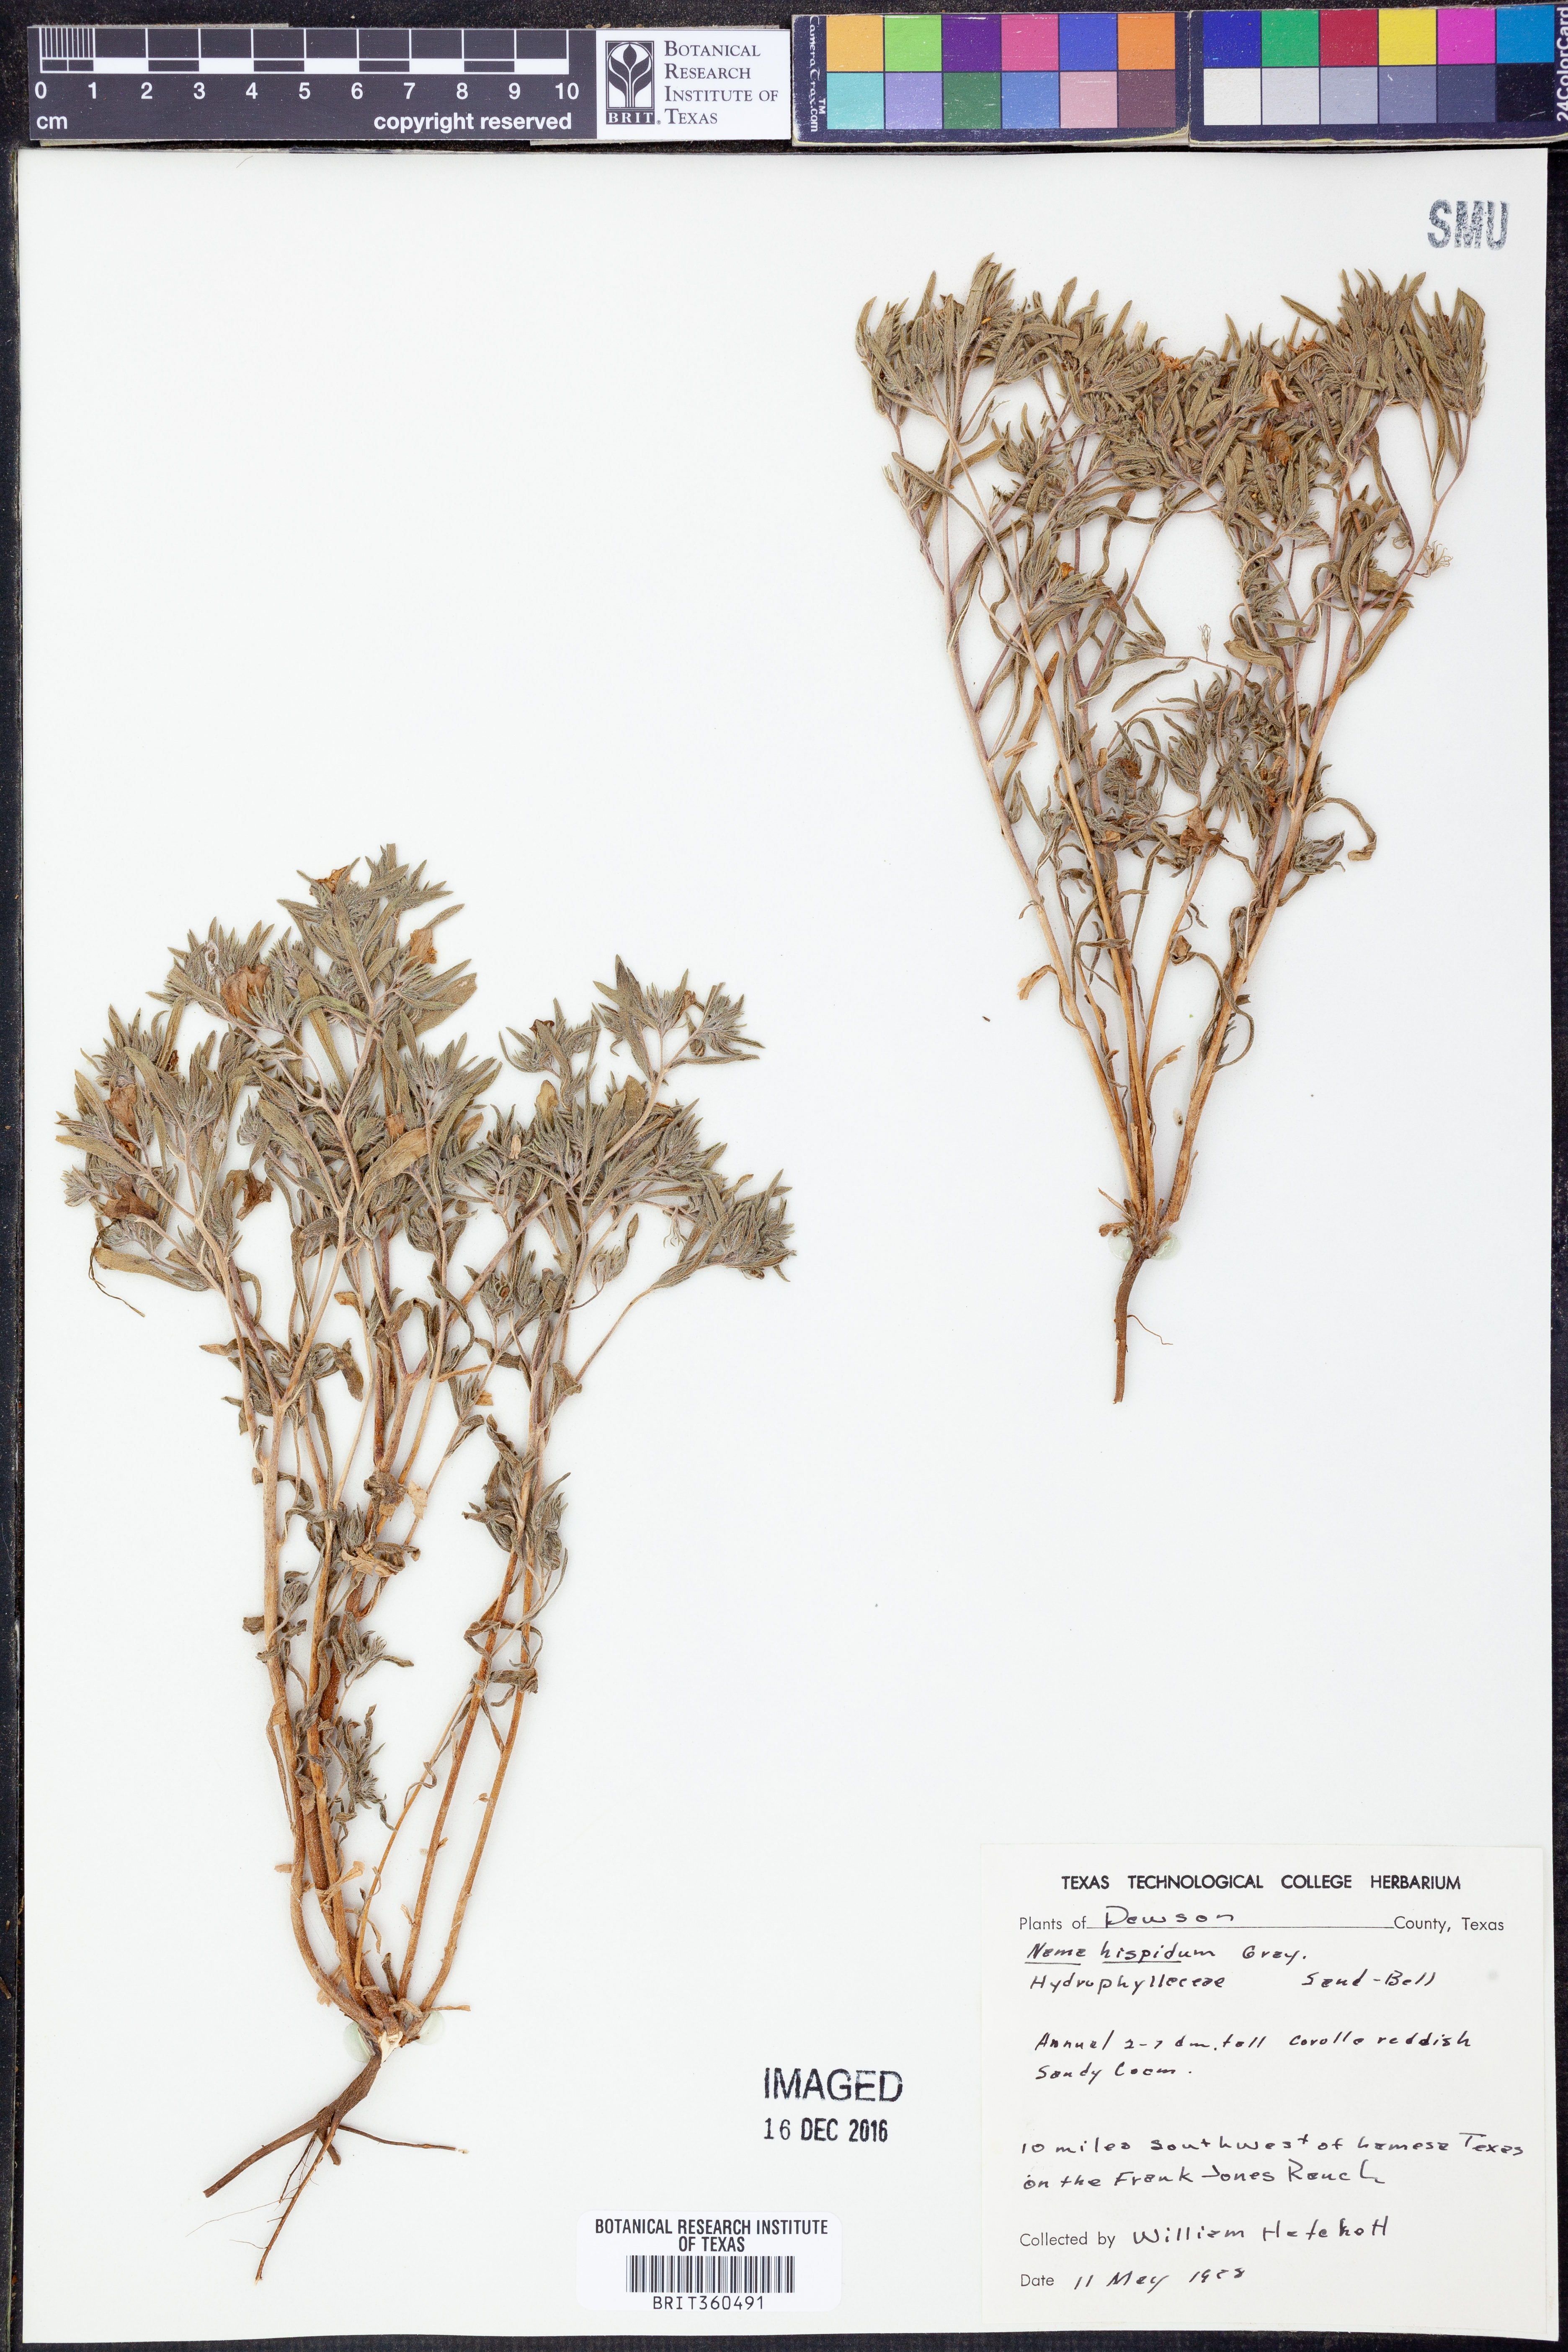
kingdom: Plantae
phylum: Tracheophyta
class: Magnoliopsida
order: Boraginales
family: Namaceae
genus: Nama
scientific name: Nama hispida
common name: Bristly nama
